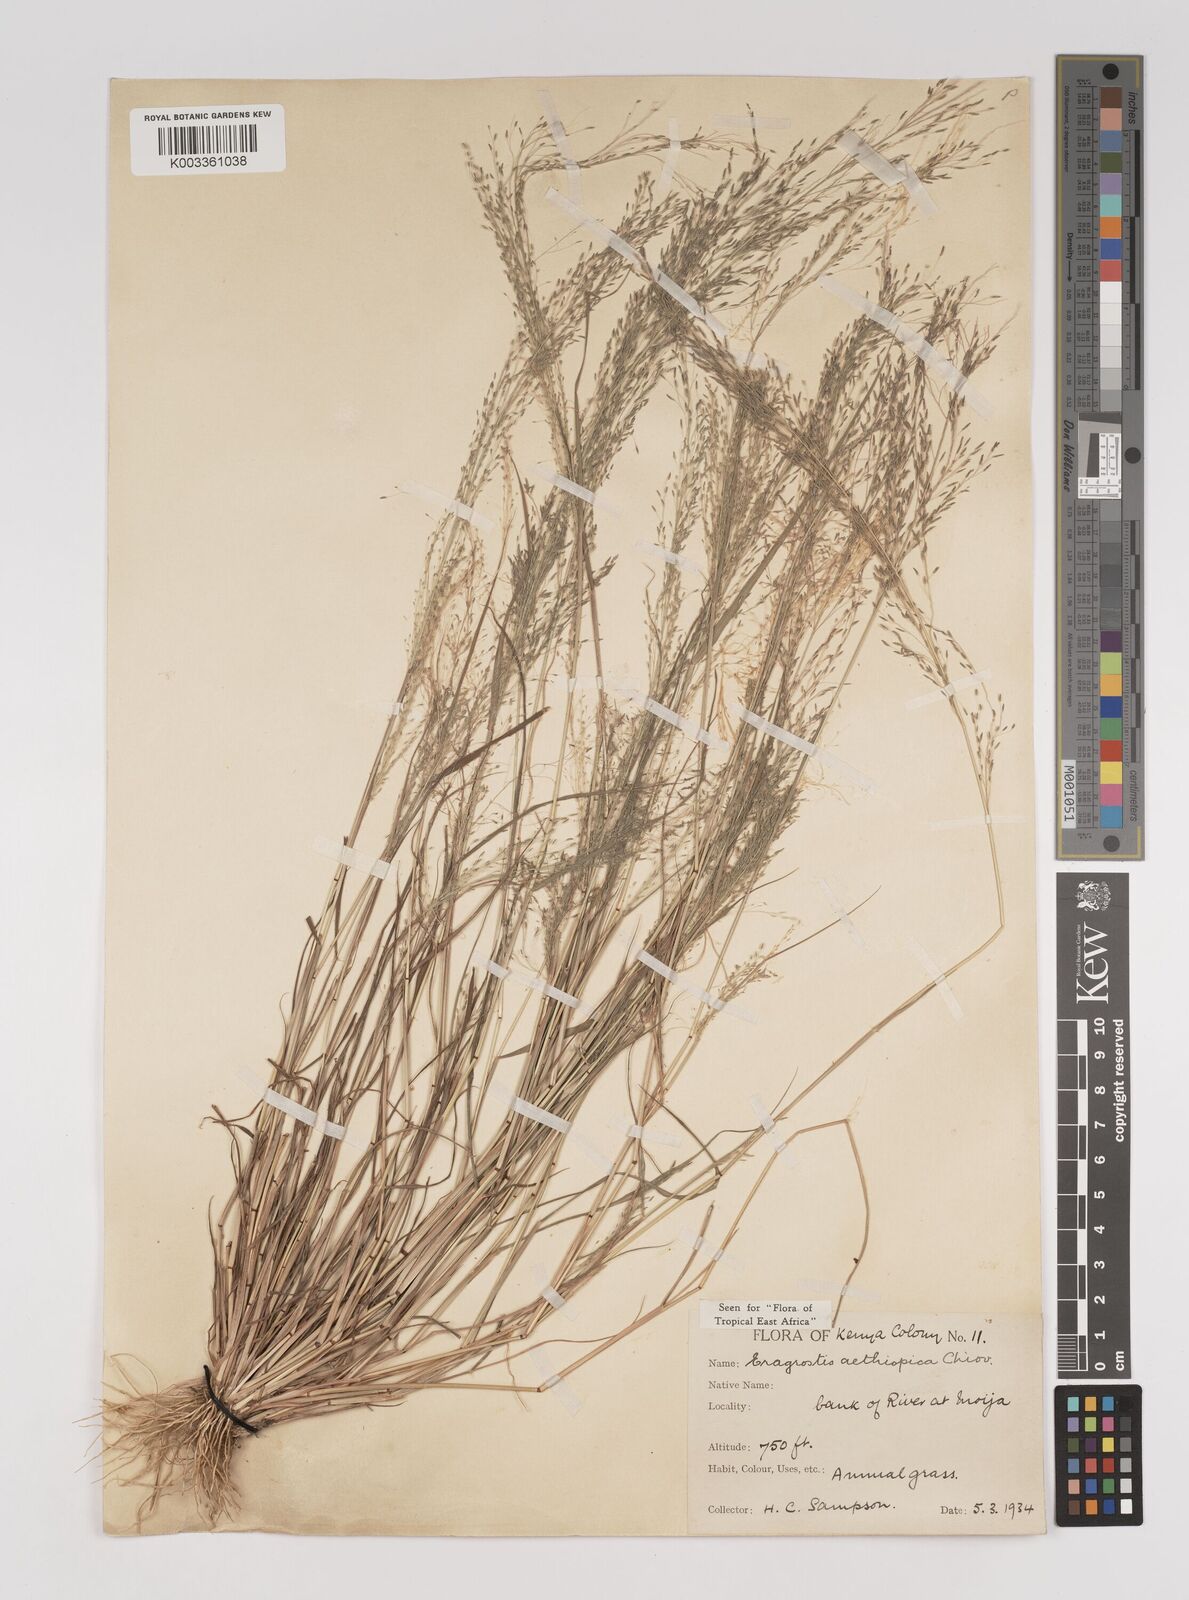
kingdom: Plantae
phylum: Tracheophyta
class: Liliopsida
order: Poales
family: Poaceae
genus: Eragrostis
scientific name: Eragrostis aethiopica
